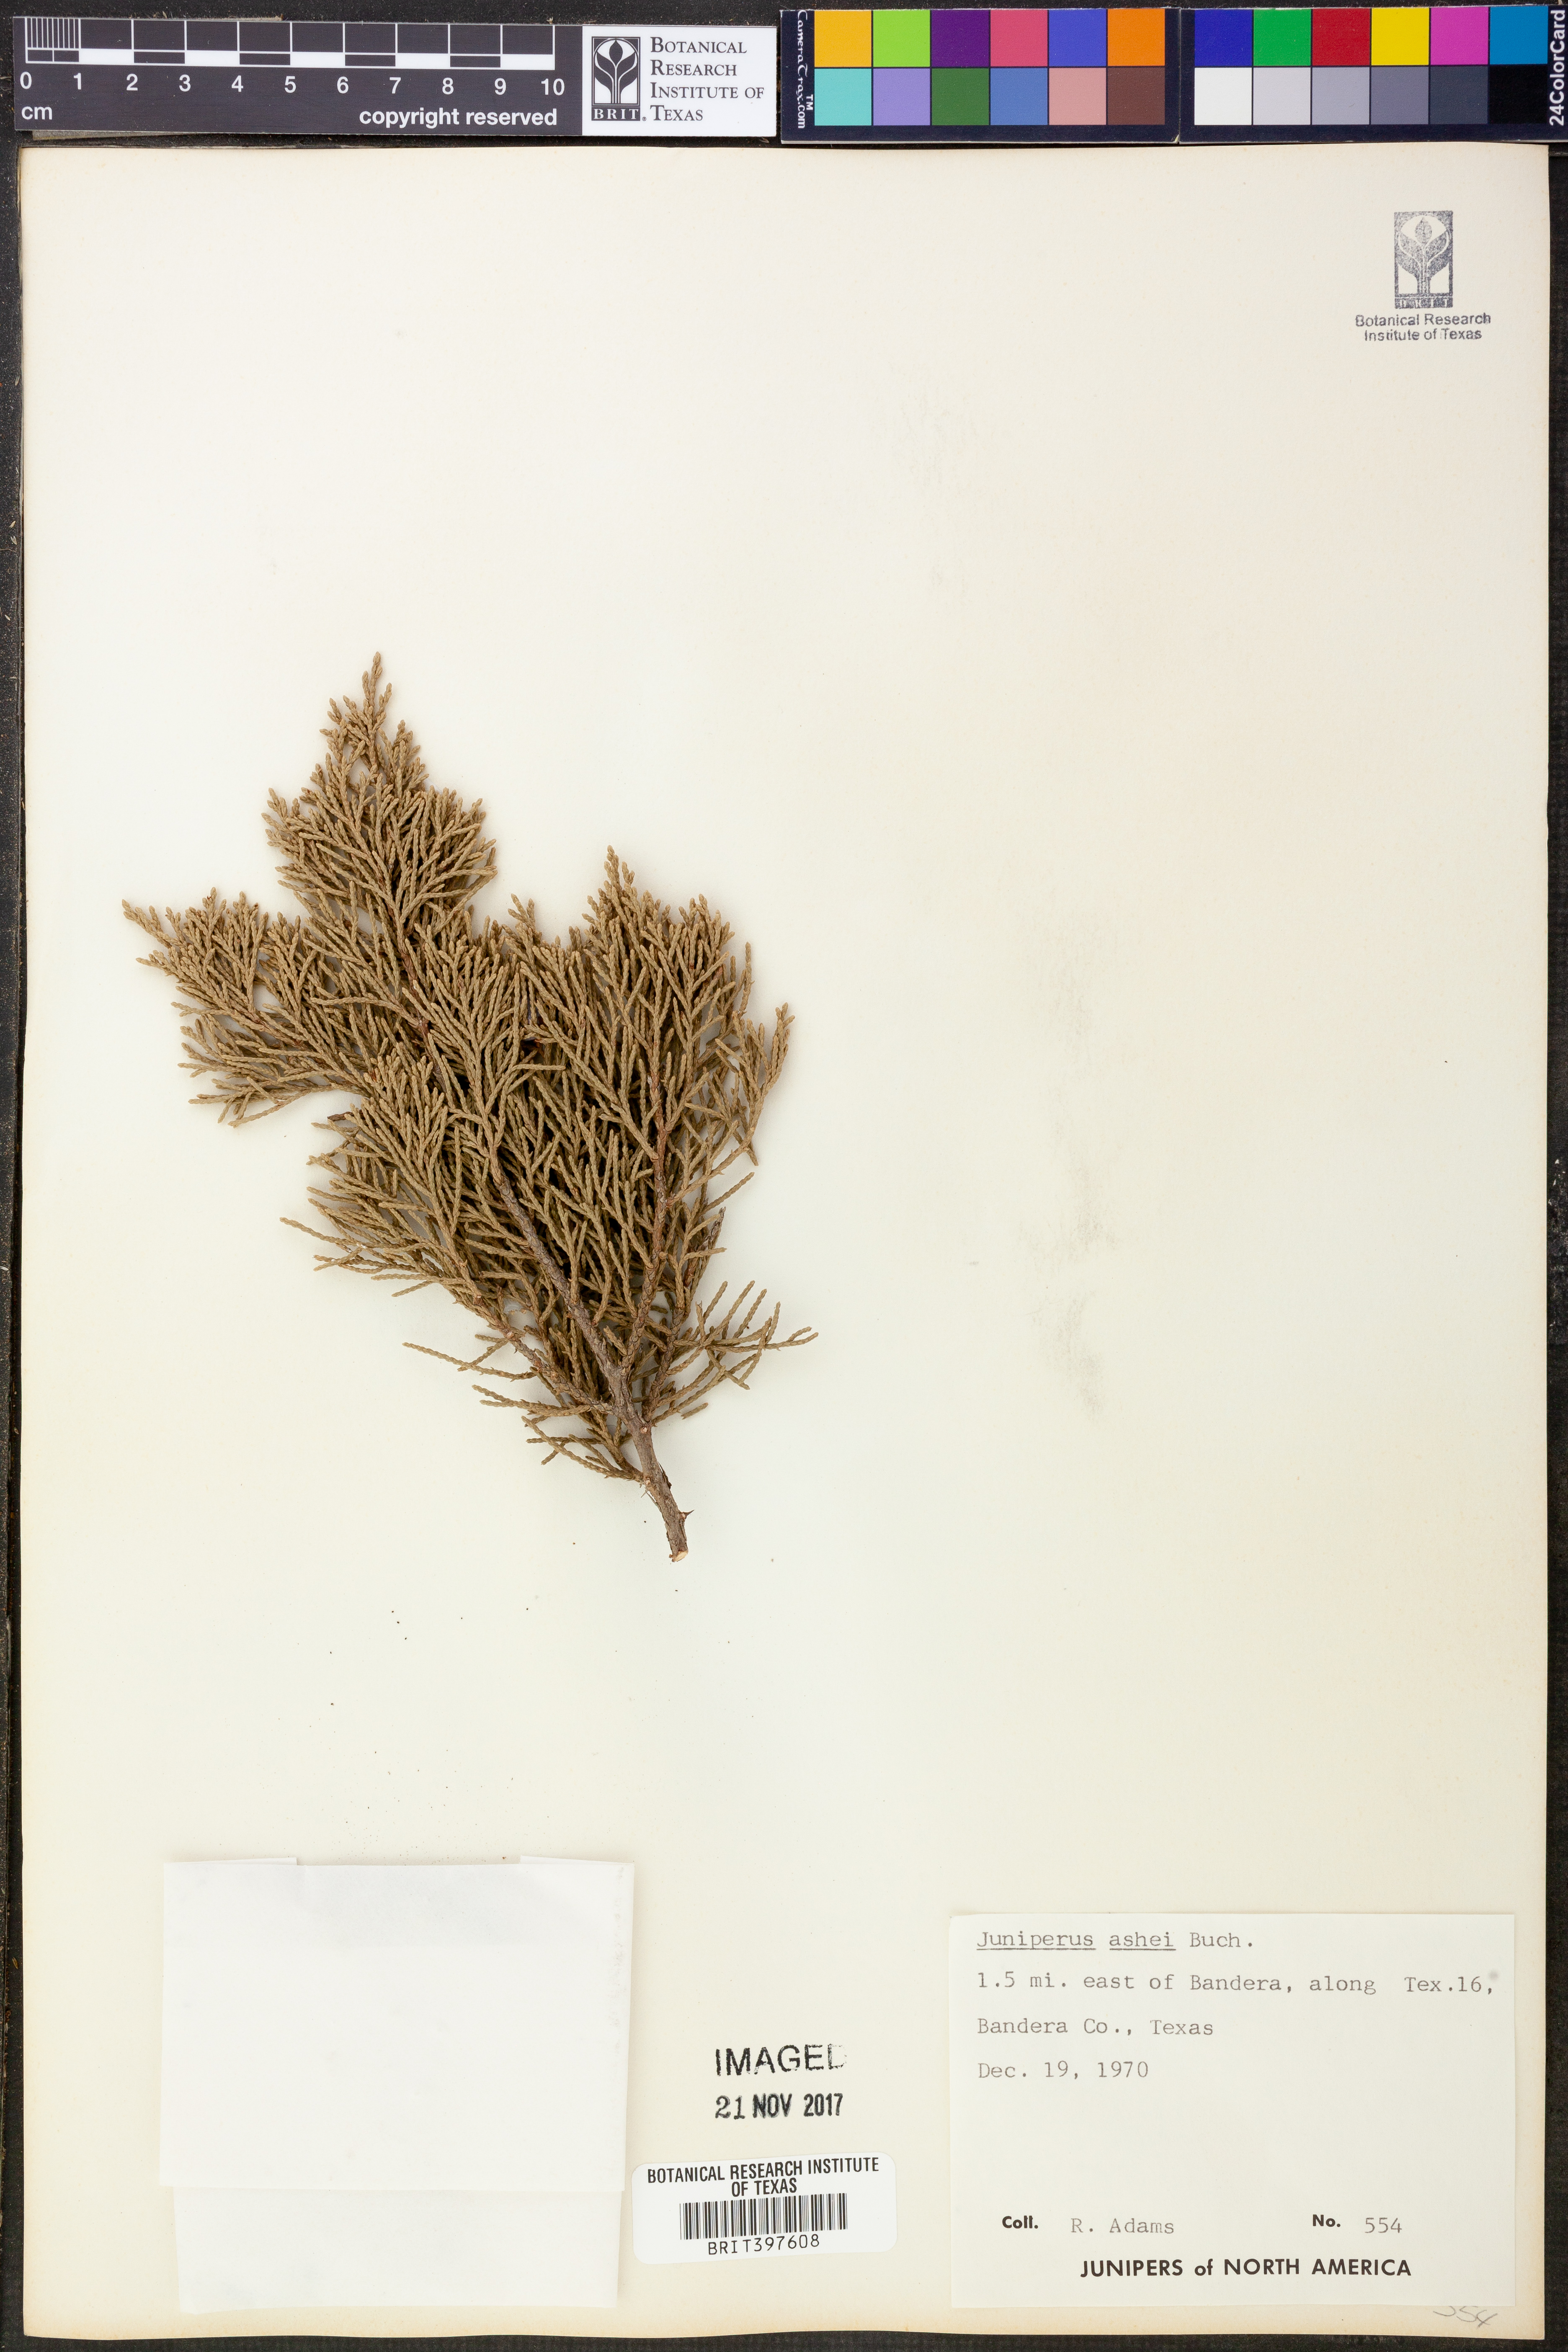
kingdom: Plantae
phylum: Tracheophyta
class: Pinopsida
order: Pinales
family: Cupressaceae
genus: Juniperus
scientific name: Juniperus ashei
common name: Mexican juniper
